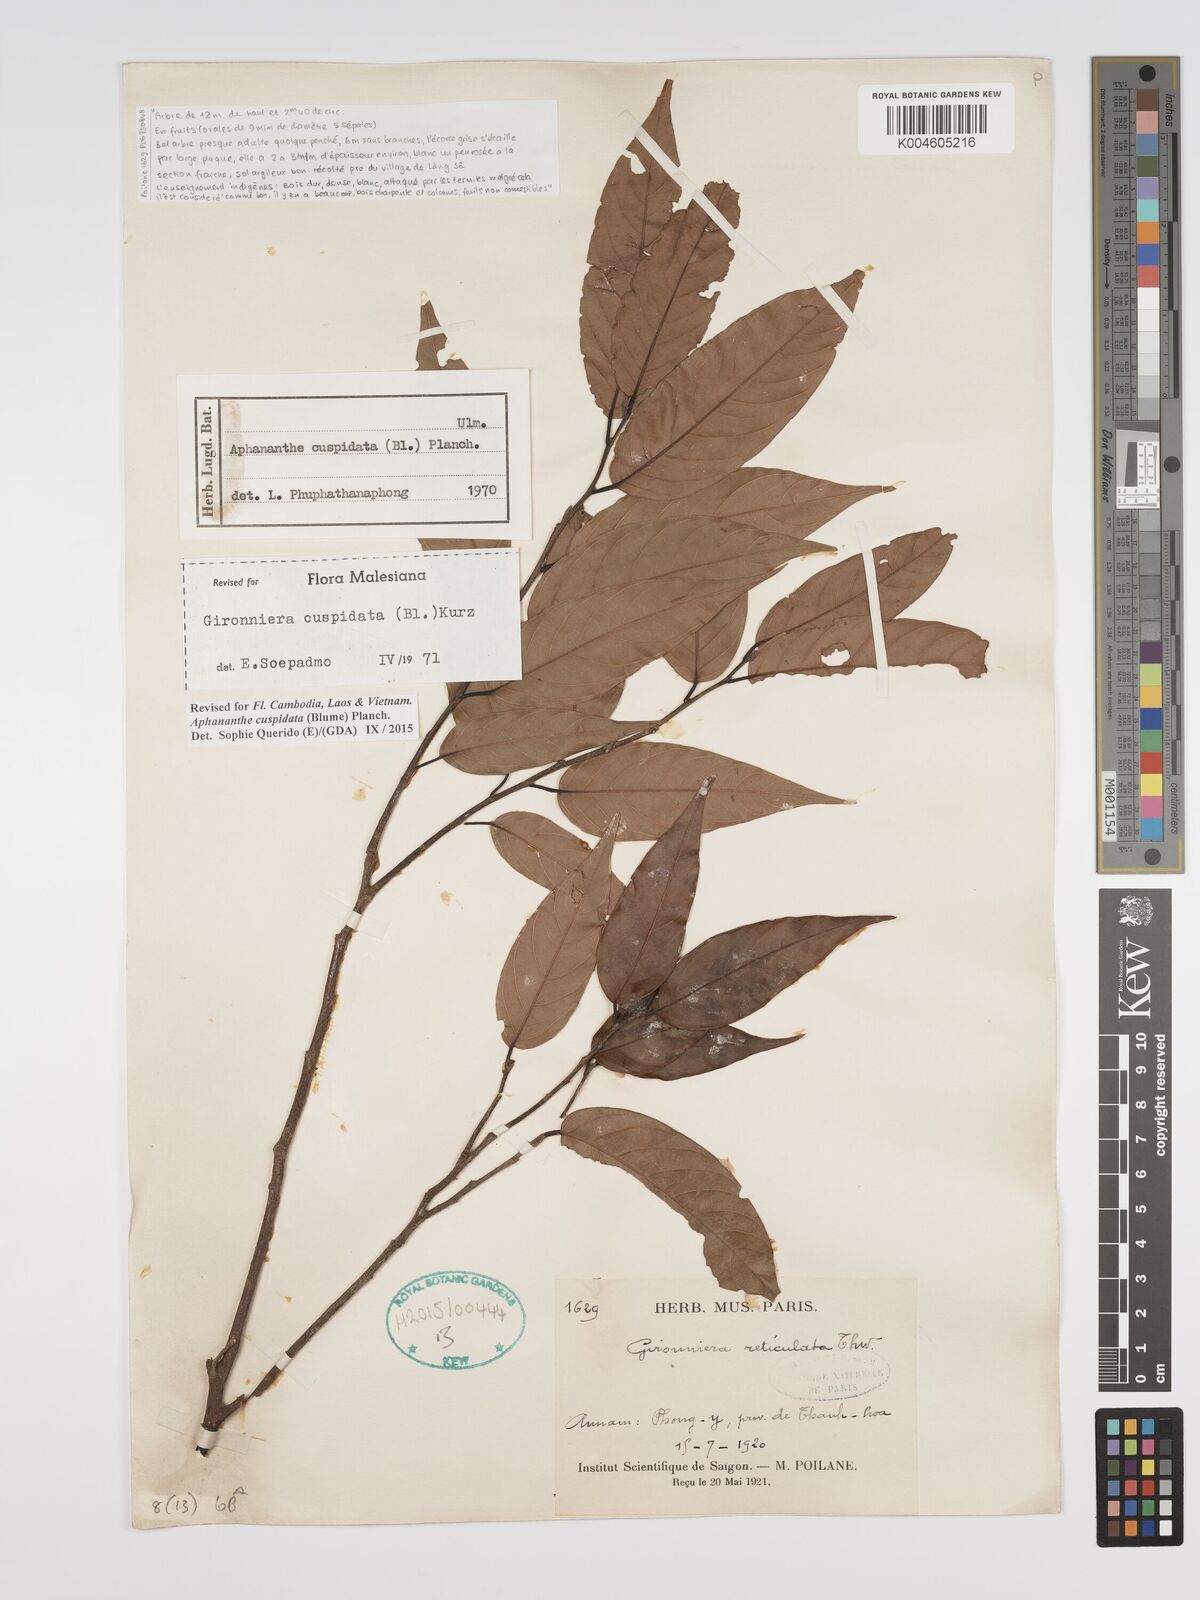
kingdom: Plantae
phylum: Tracheophyta
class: Magnoliopsida
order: Rosales
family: Cannabaceae
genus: Aphananthe
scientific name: Aphananthe cuspidata
